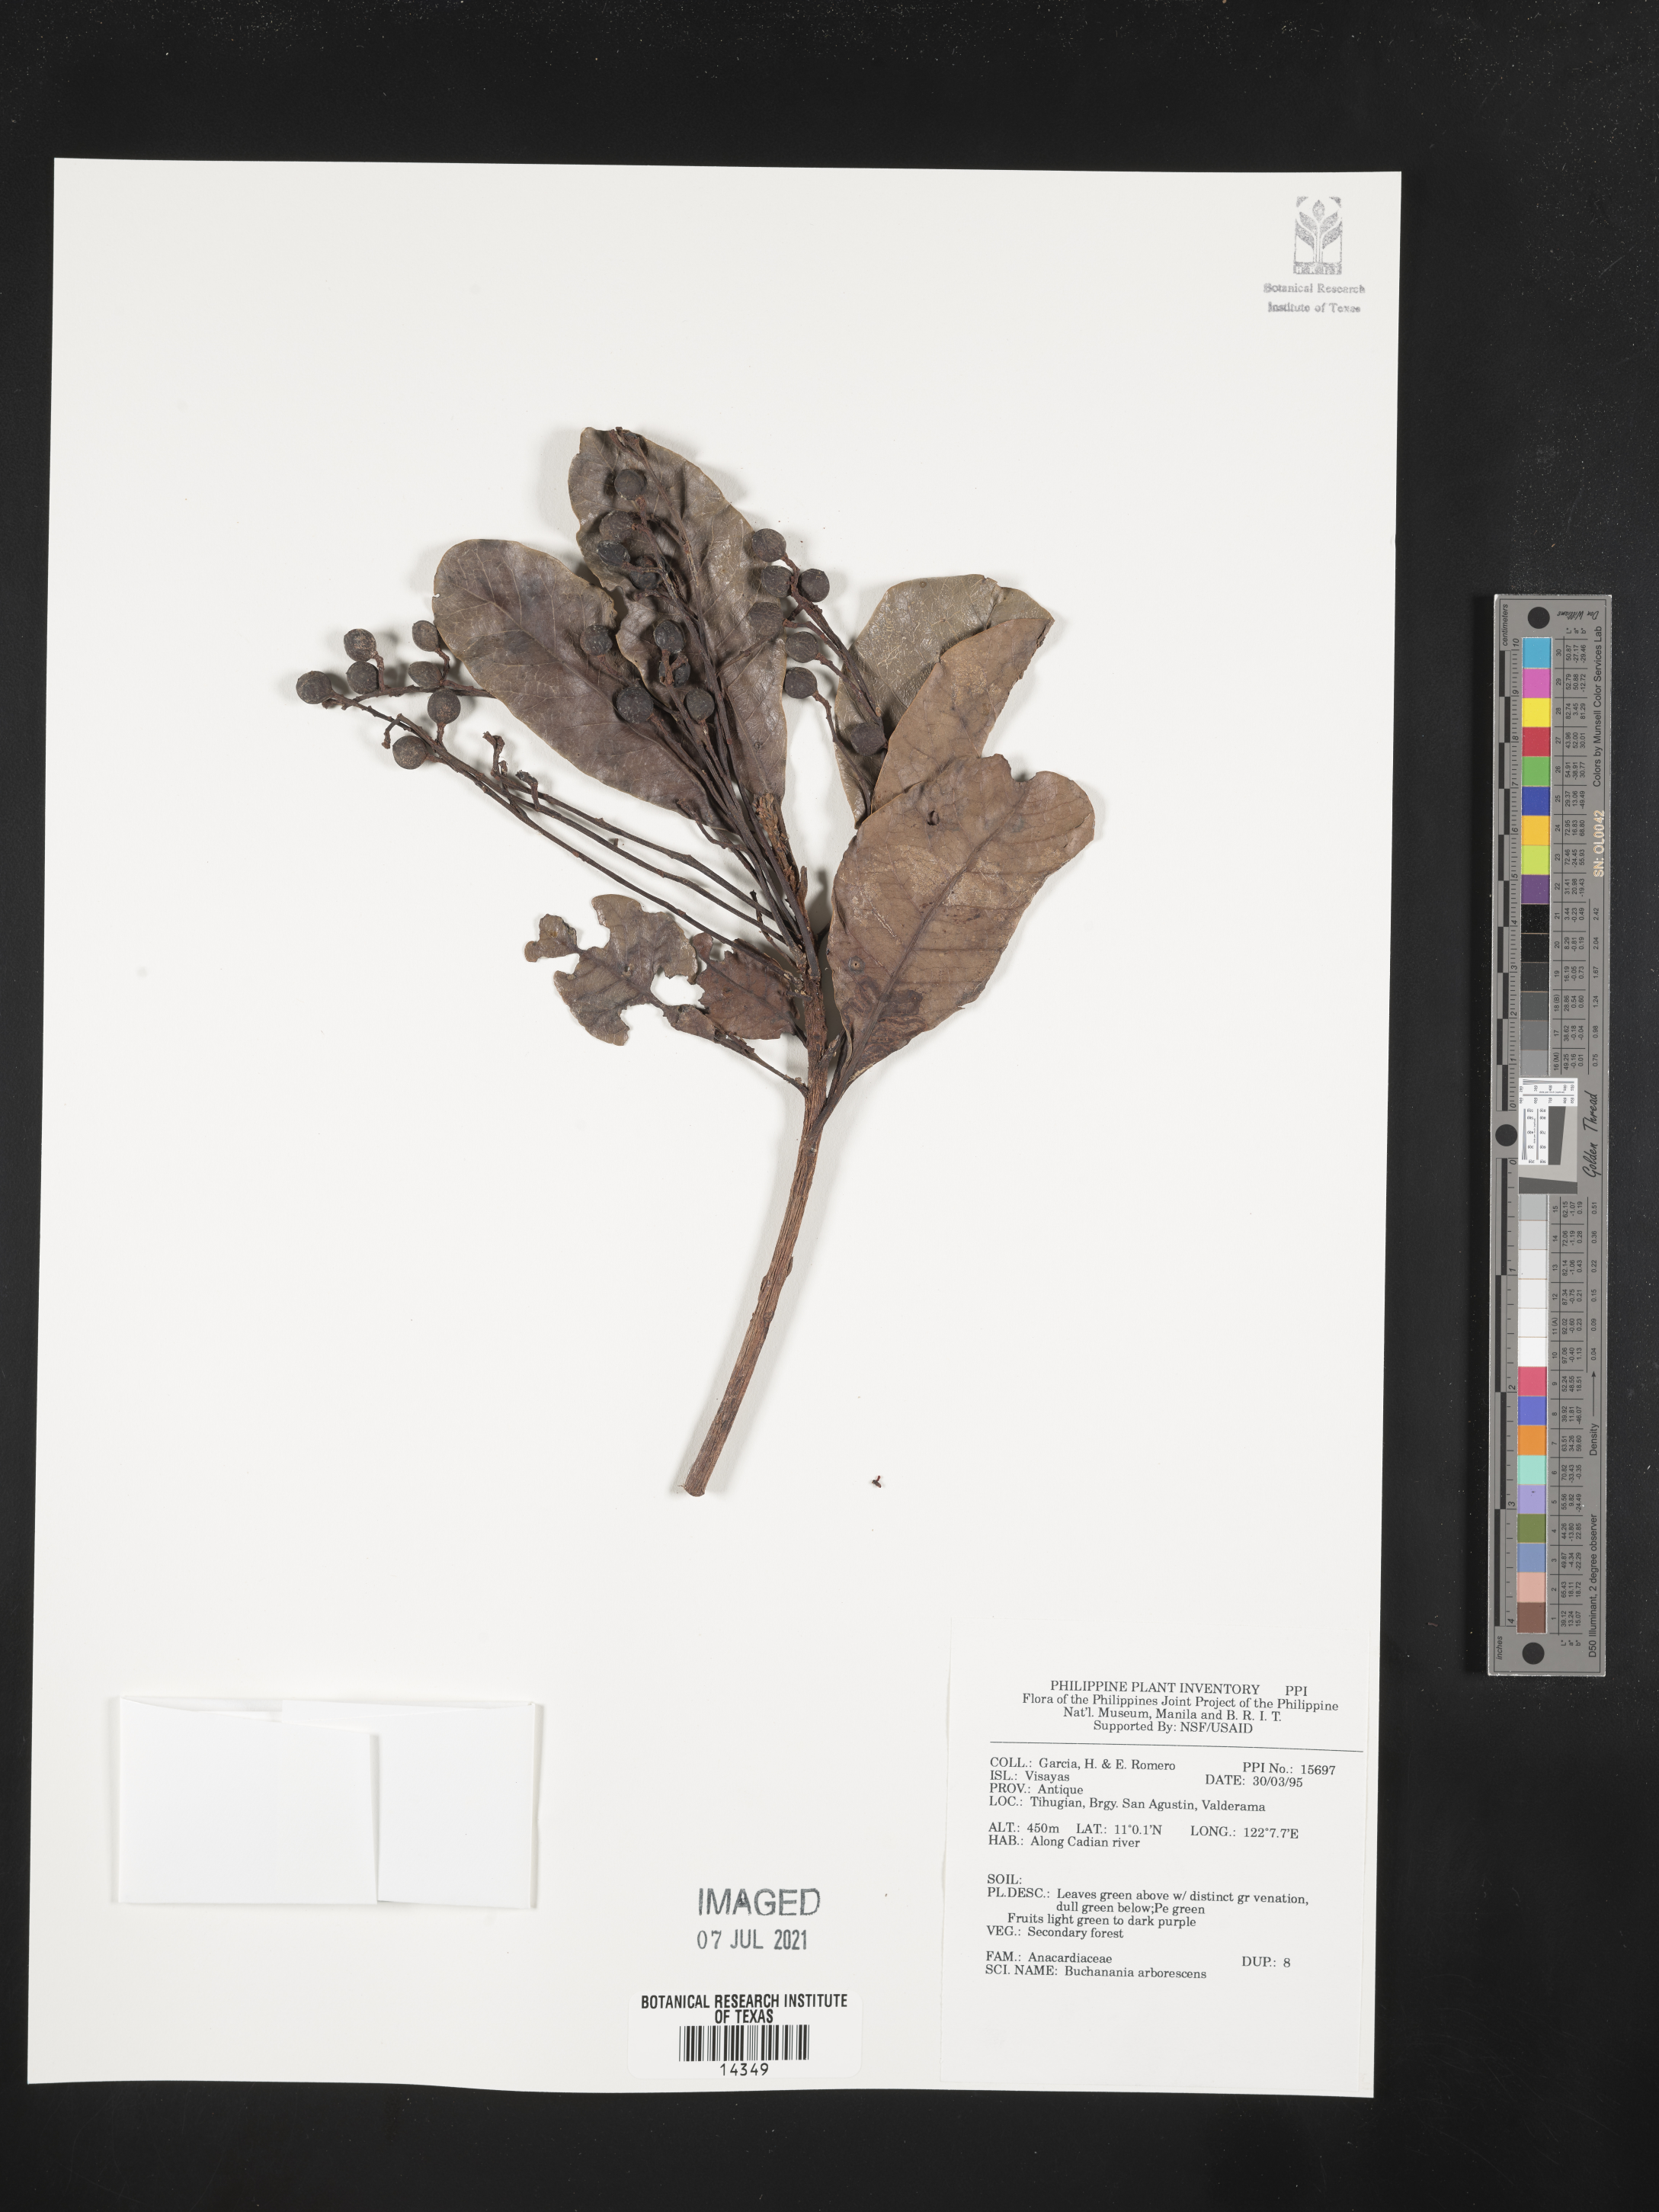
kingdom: Plantae
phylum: Tracheophyta
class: Magnoliopsida
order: Sapindales
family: Anacardiaceae
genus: Buchanania
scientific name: Buchanania arborescens
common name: Sparrow’s mango
